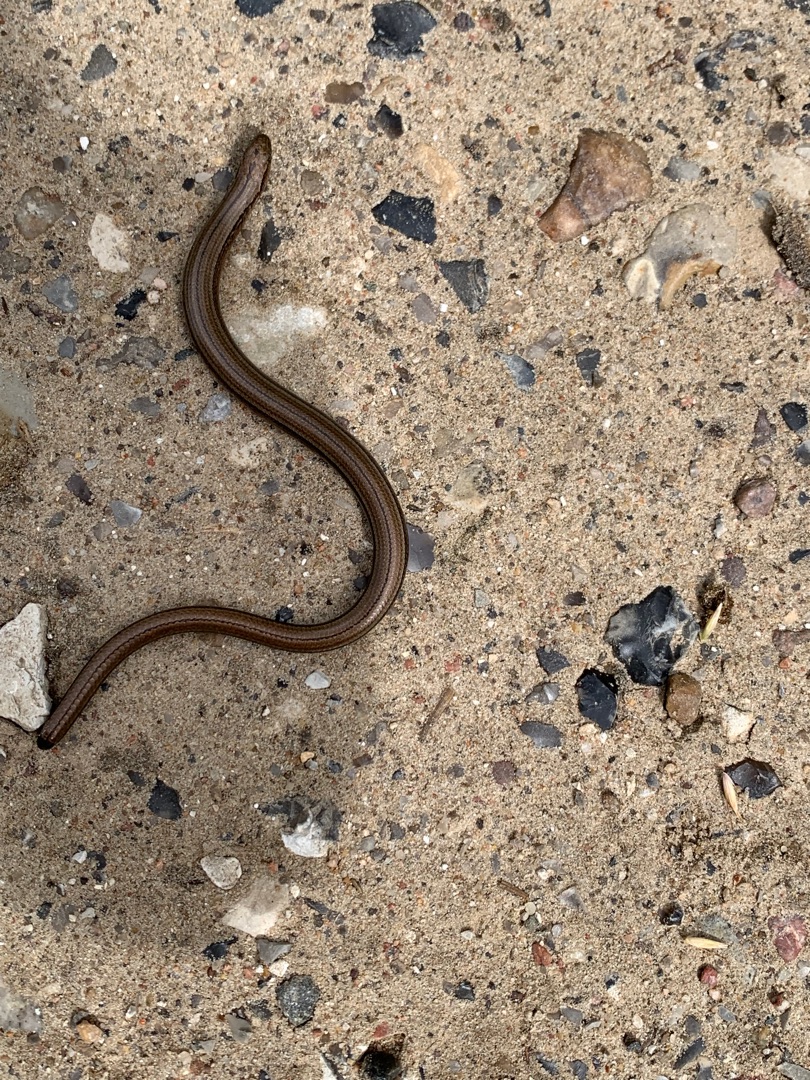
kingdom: Animalia
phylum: Chordata
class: Squamata
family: Anguidae
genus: Anguis
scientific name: Anguis fragilis
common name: Stålorm
